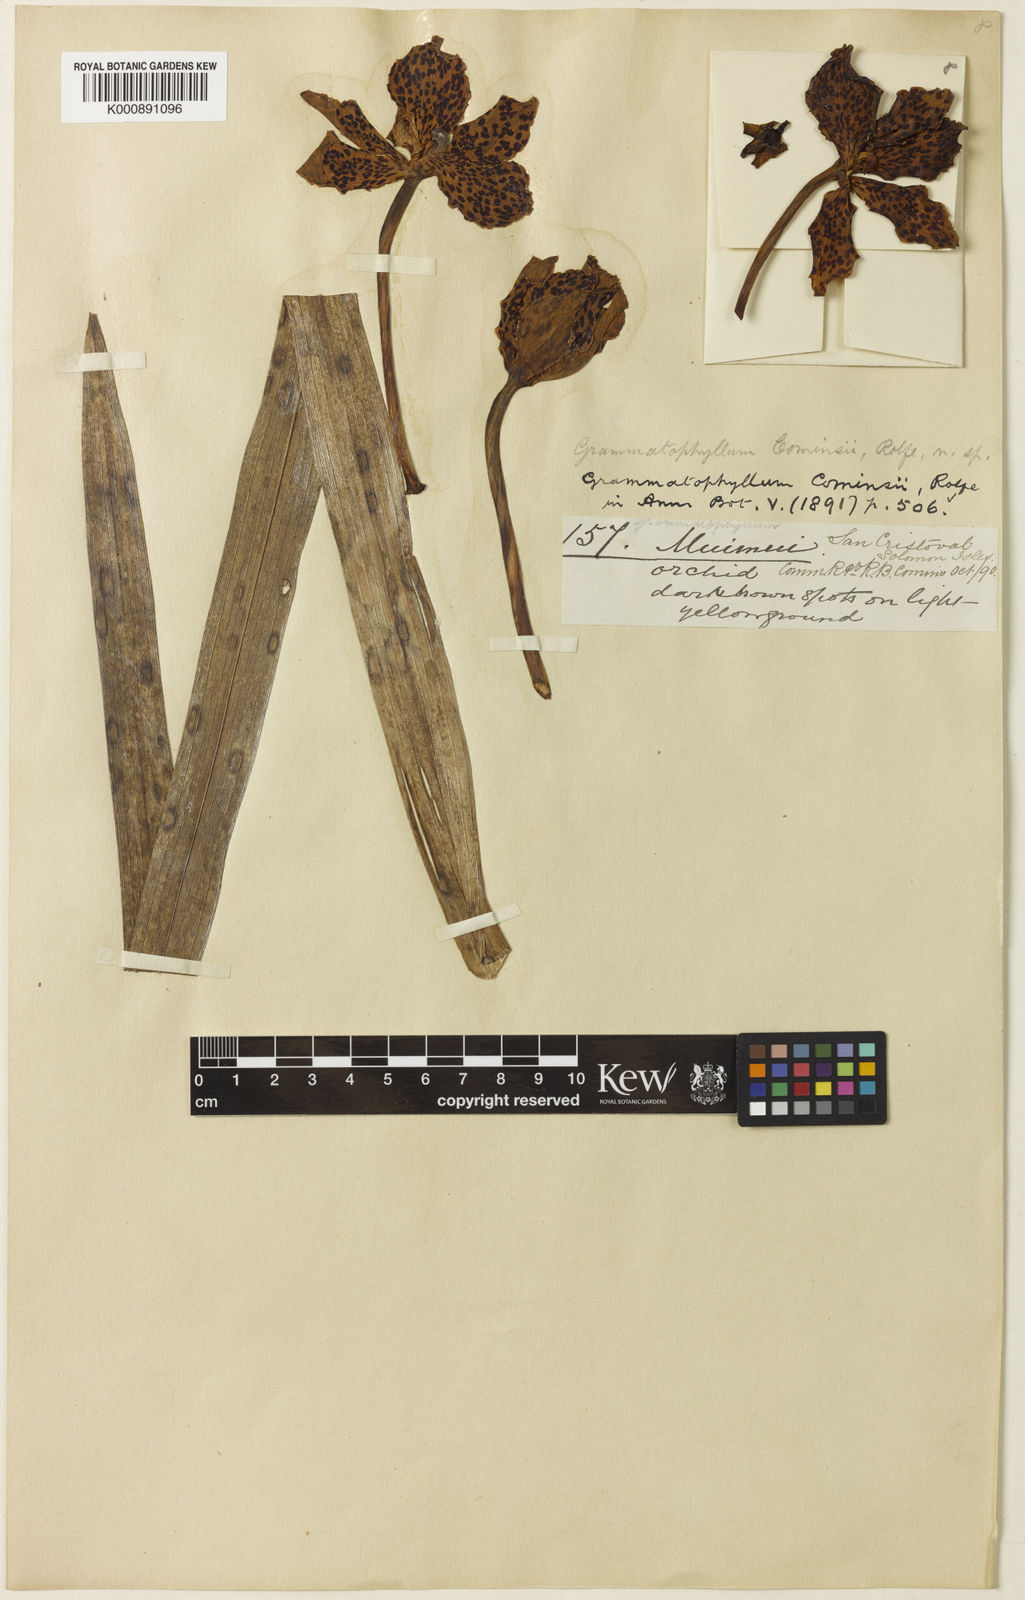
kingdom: Plantae
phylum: Tracheophyta
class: Liliopsida
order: Asparagales
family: Orchidaceae
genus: Grammatophyllum
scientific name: Grammatophyllum pantherinum
